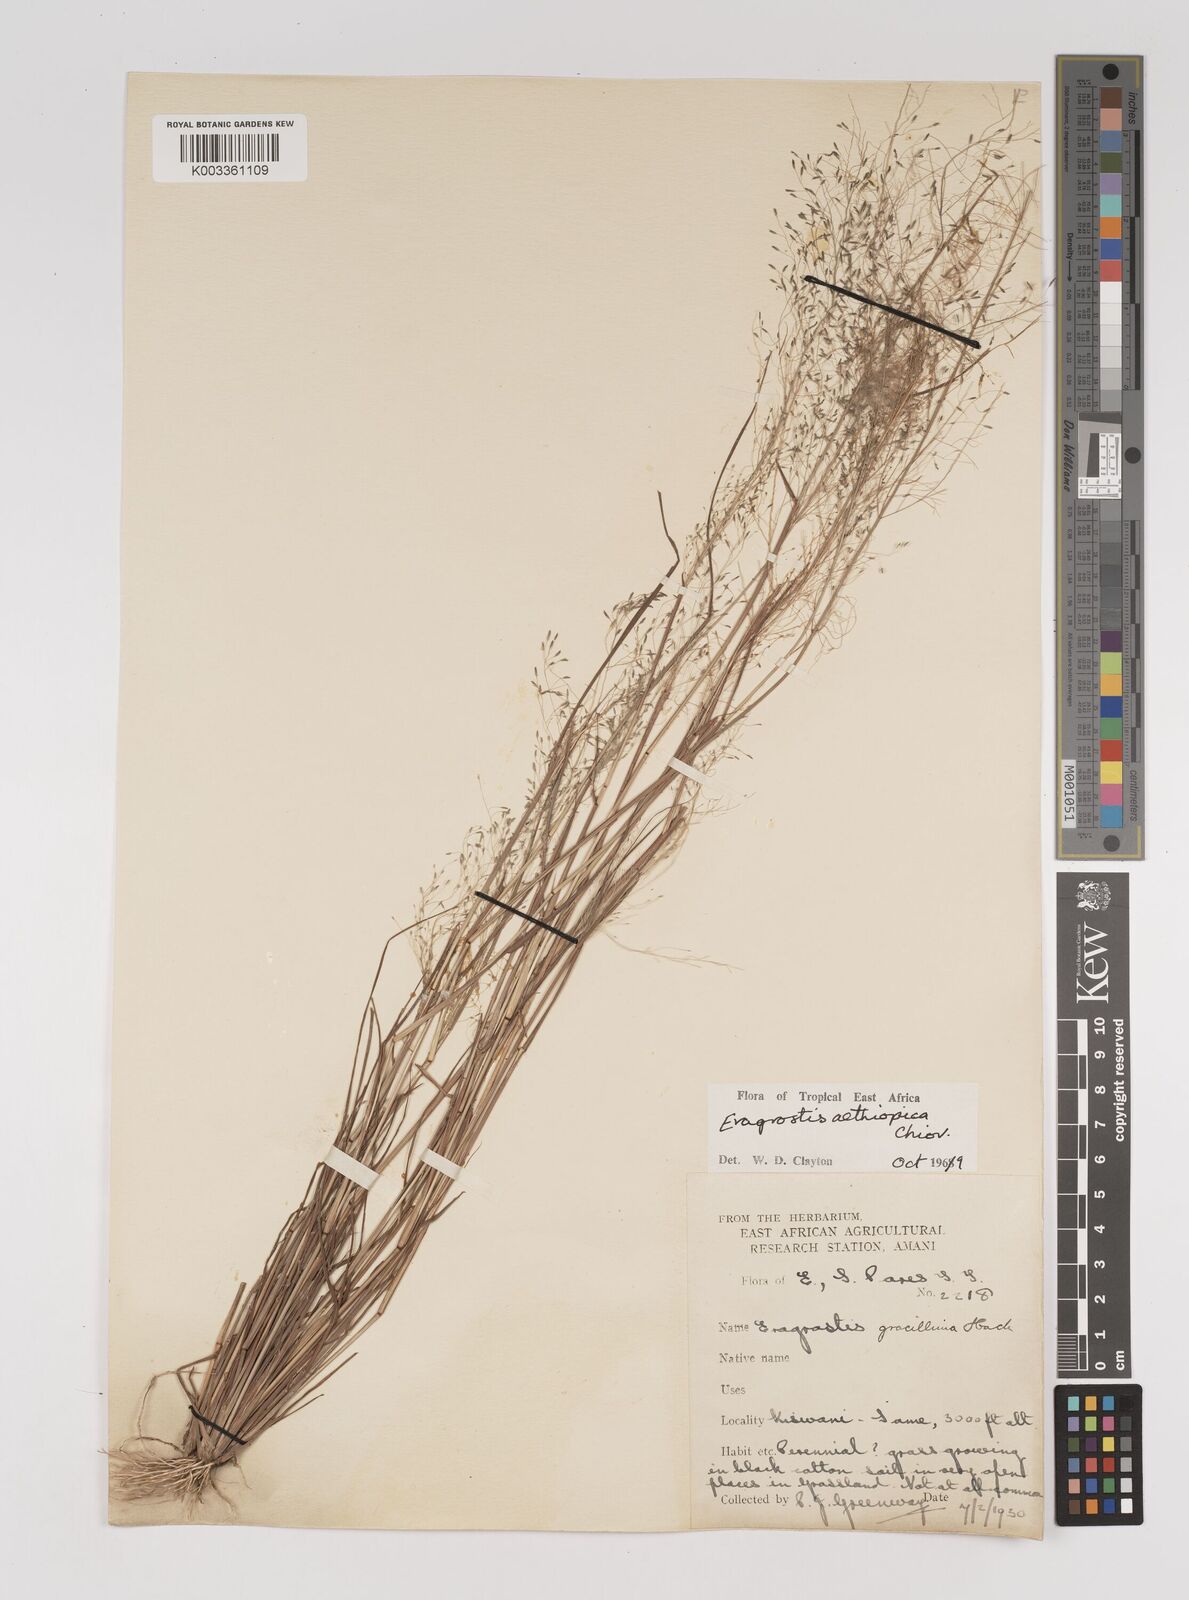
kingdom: Plantae
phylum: Tracheophyta
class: Liliopsida
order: Poales
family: Poaceae
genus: Eragrostis
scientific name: Eragrostis aethiopica
